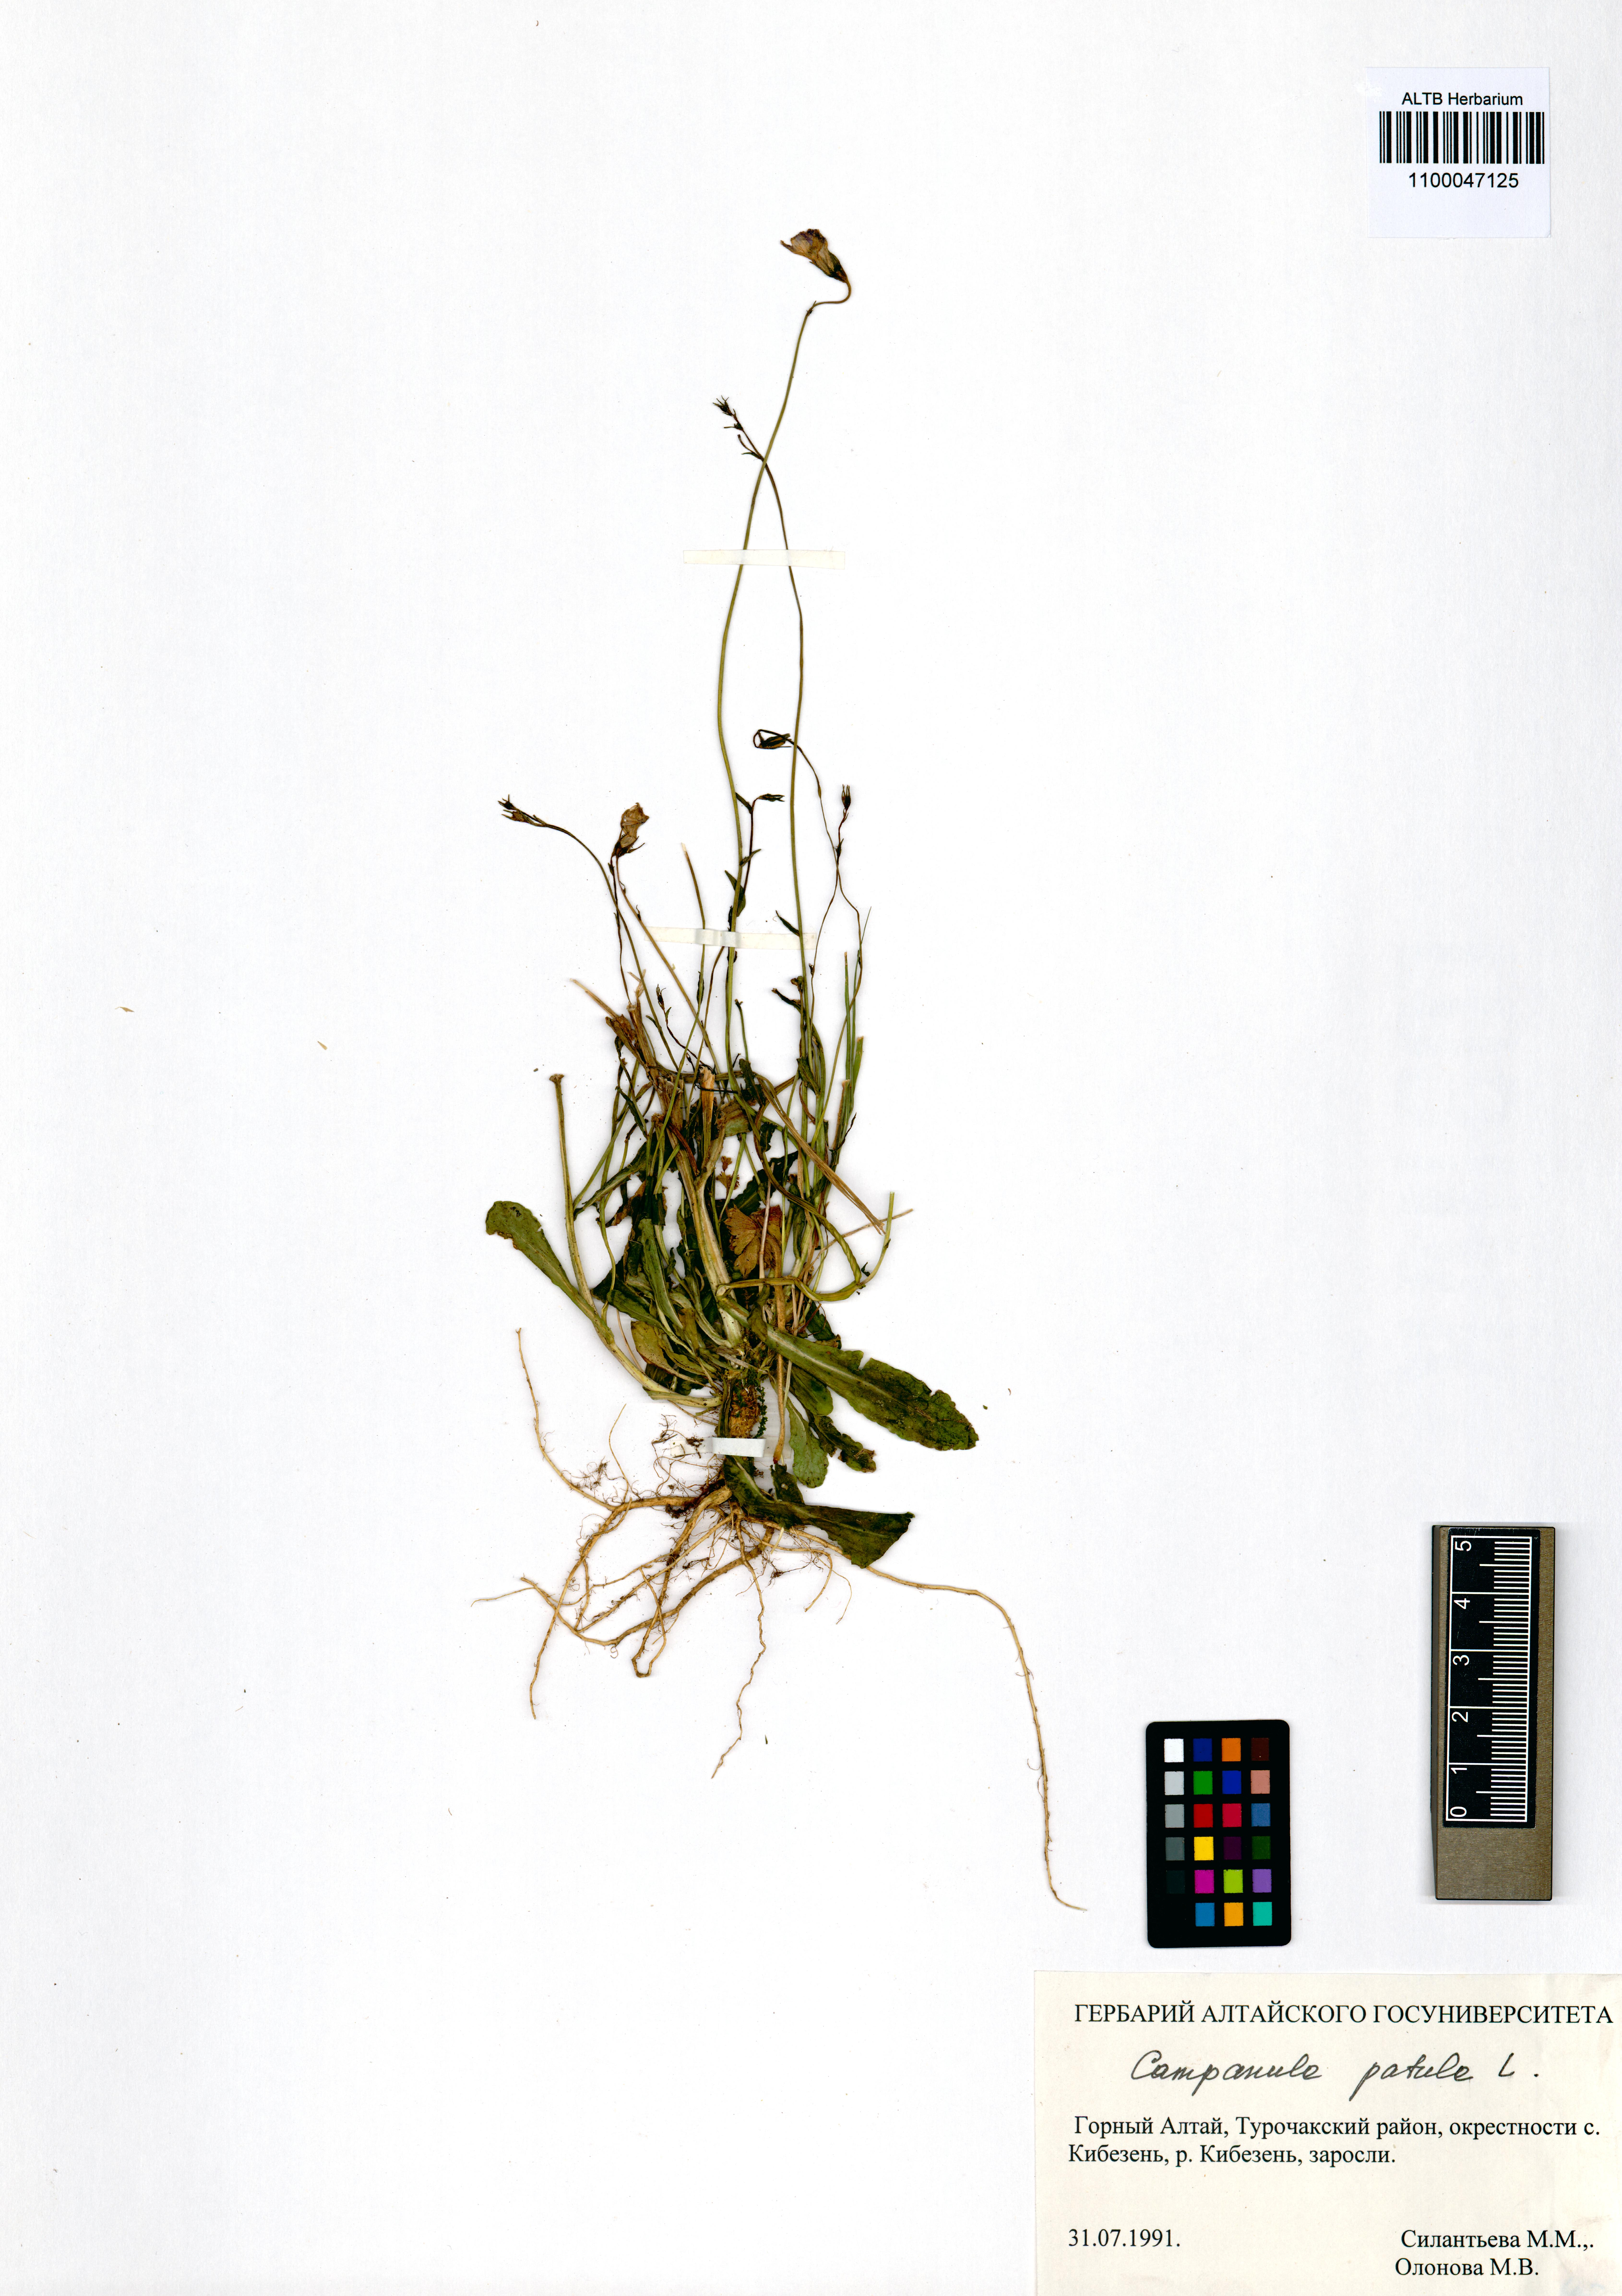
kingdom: Plantae
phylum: Tracheophyta
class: Magnoliopsida
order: Asterales
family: Campanulaceae
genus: Campanula
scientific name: Campanula patula
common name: Spreading bellflower
